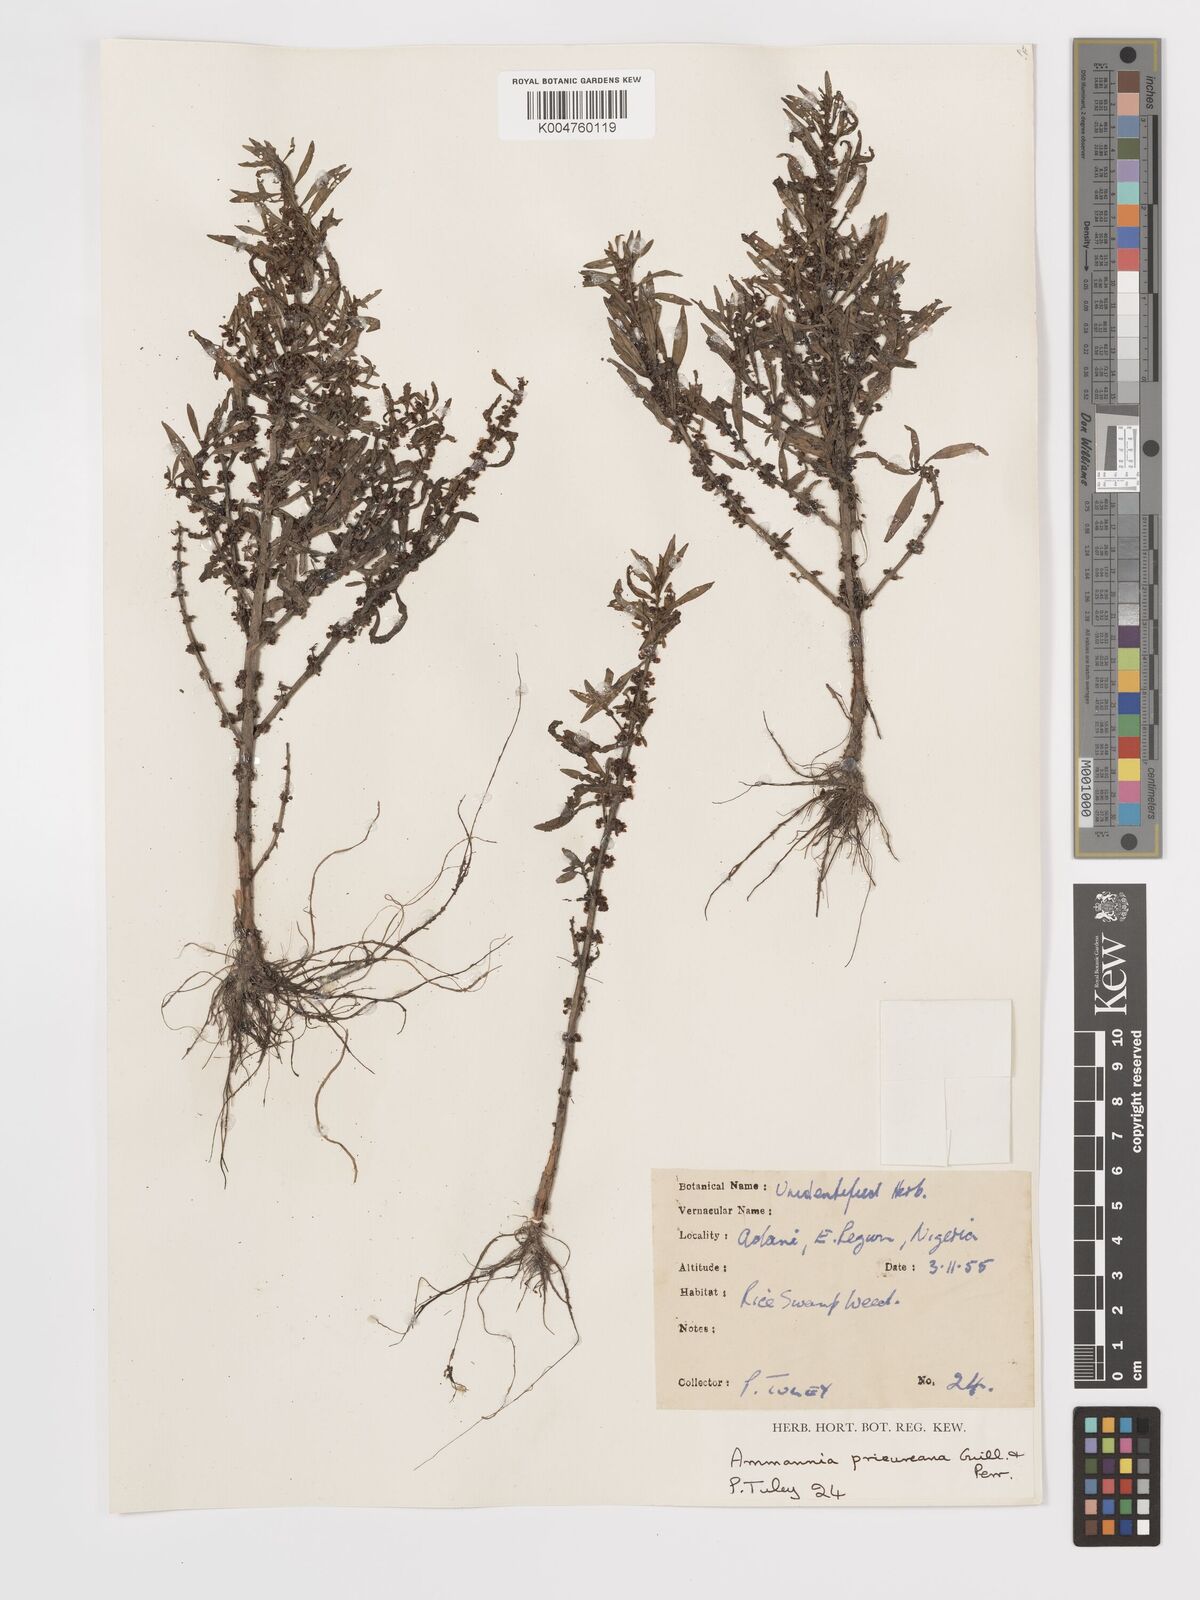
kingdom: Plantae
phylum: Tracheophyta
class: Magnoliopsida
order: Myrtales
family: Lythraceae
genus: Ammannia
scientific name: Ammannia prieuriana
